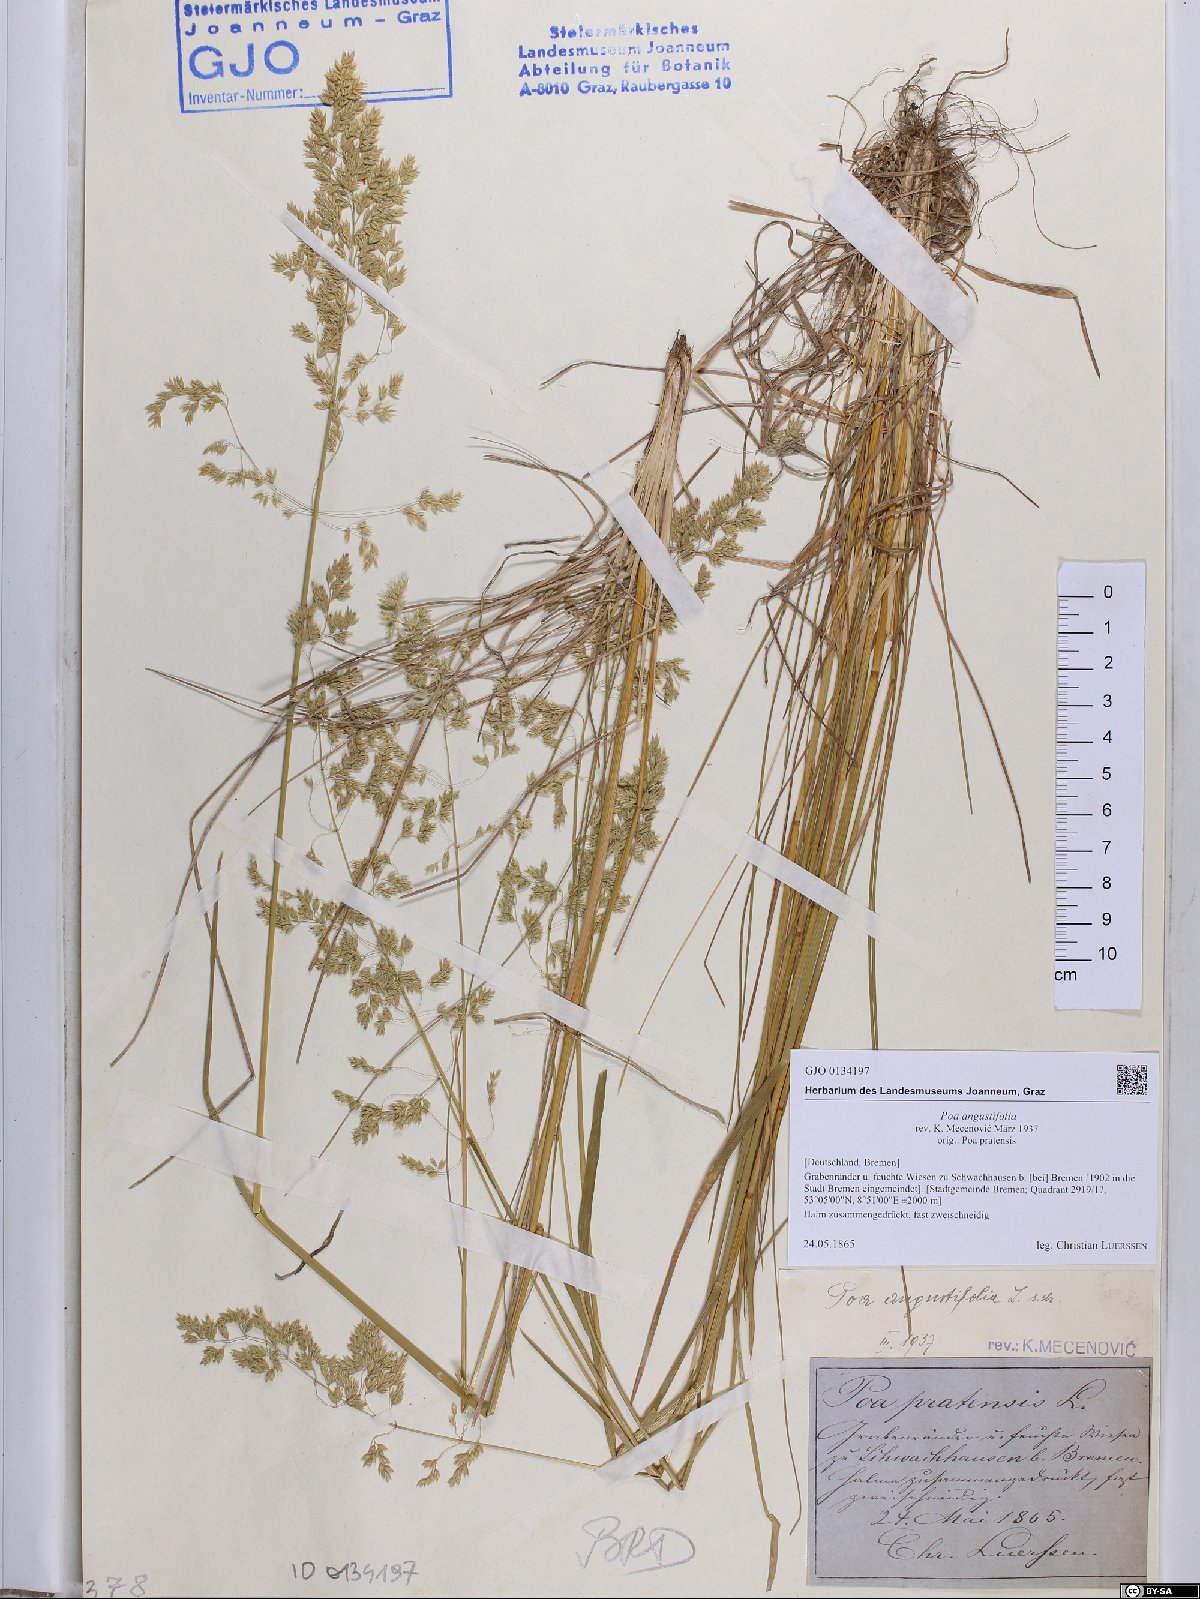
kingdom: Plantae
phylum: Tracheophyta
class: Liliopsida
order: Poales
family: Poaceae
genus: Poa
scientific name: Poa angustifolia
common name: Narrow-leaved meadow-grass
